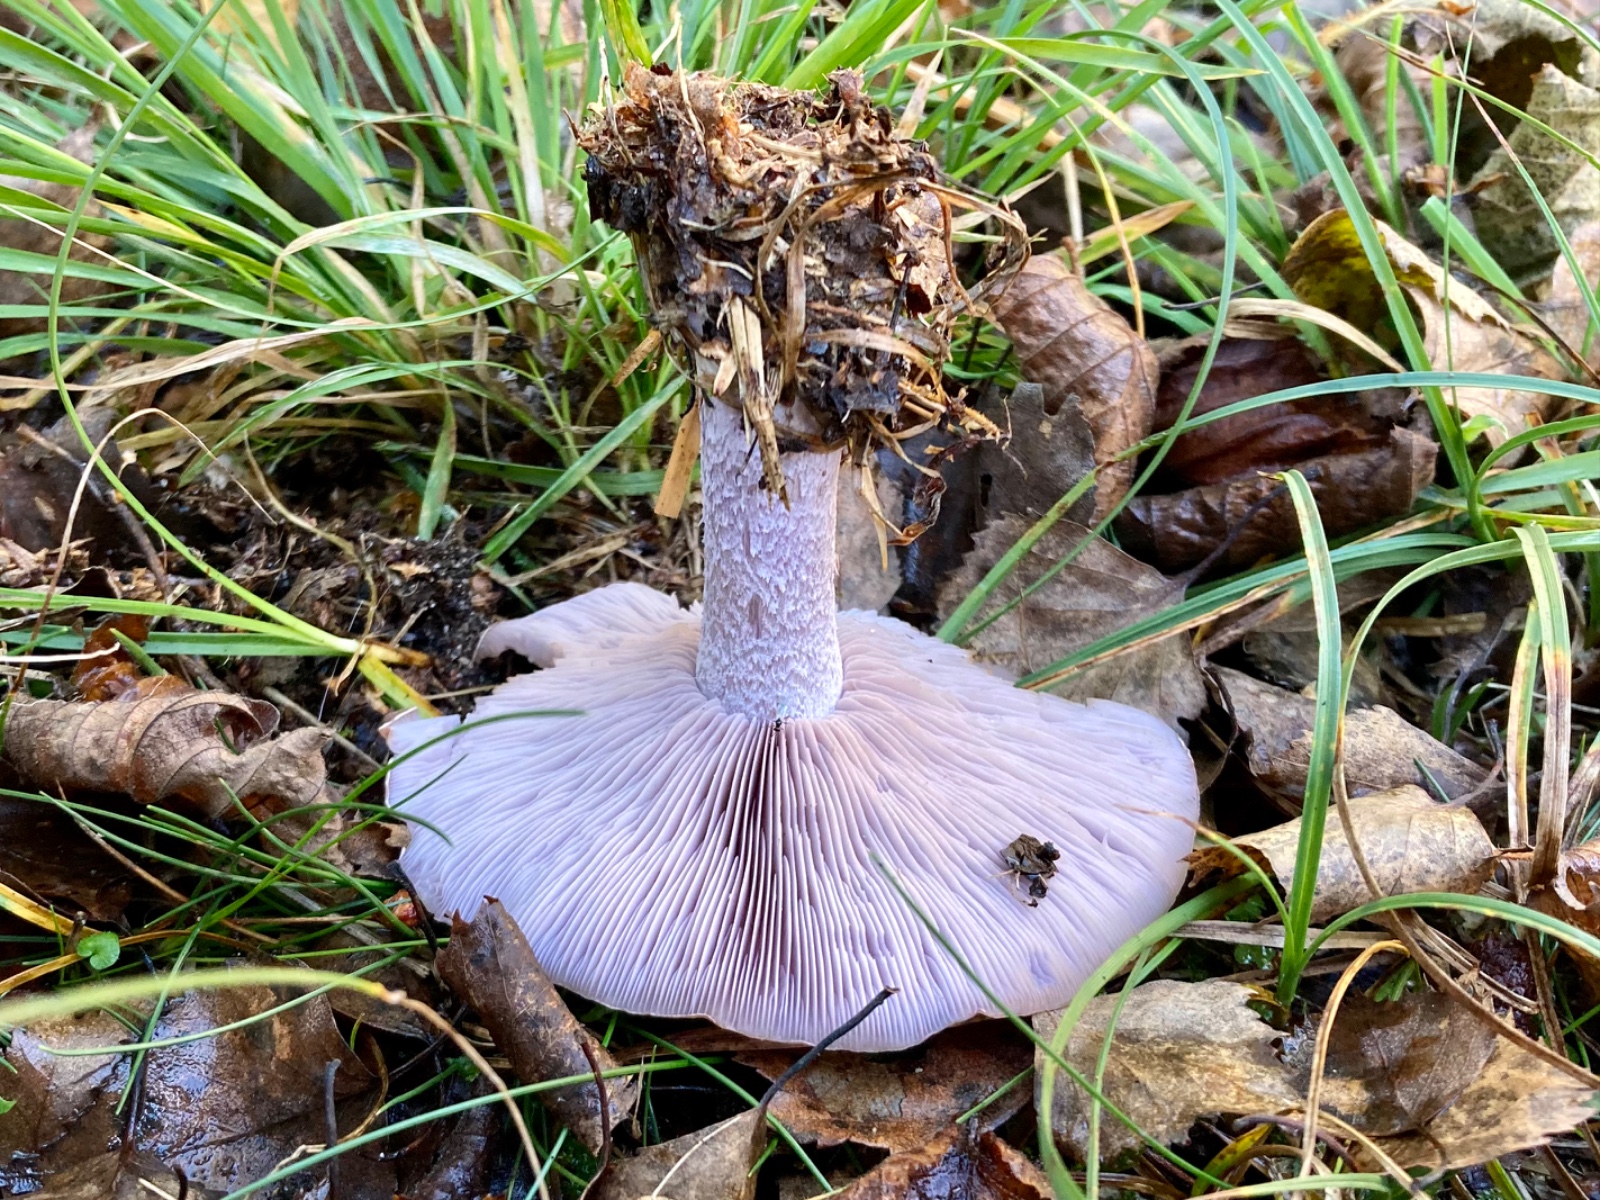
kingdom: Fungi
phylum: Basidiomycota
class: Agaricomycetes
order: Agaricales
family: Tricholomataceae
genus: Lepista
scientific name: Lepista nuda
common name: violet hekseringshat
